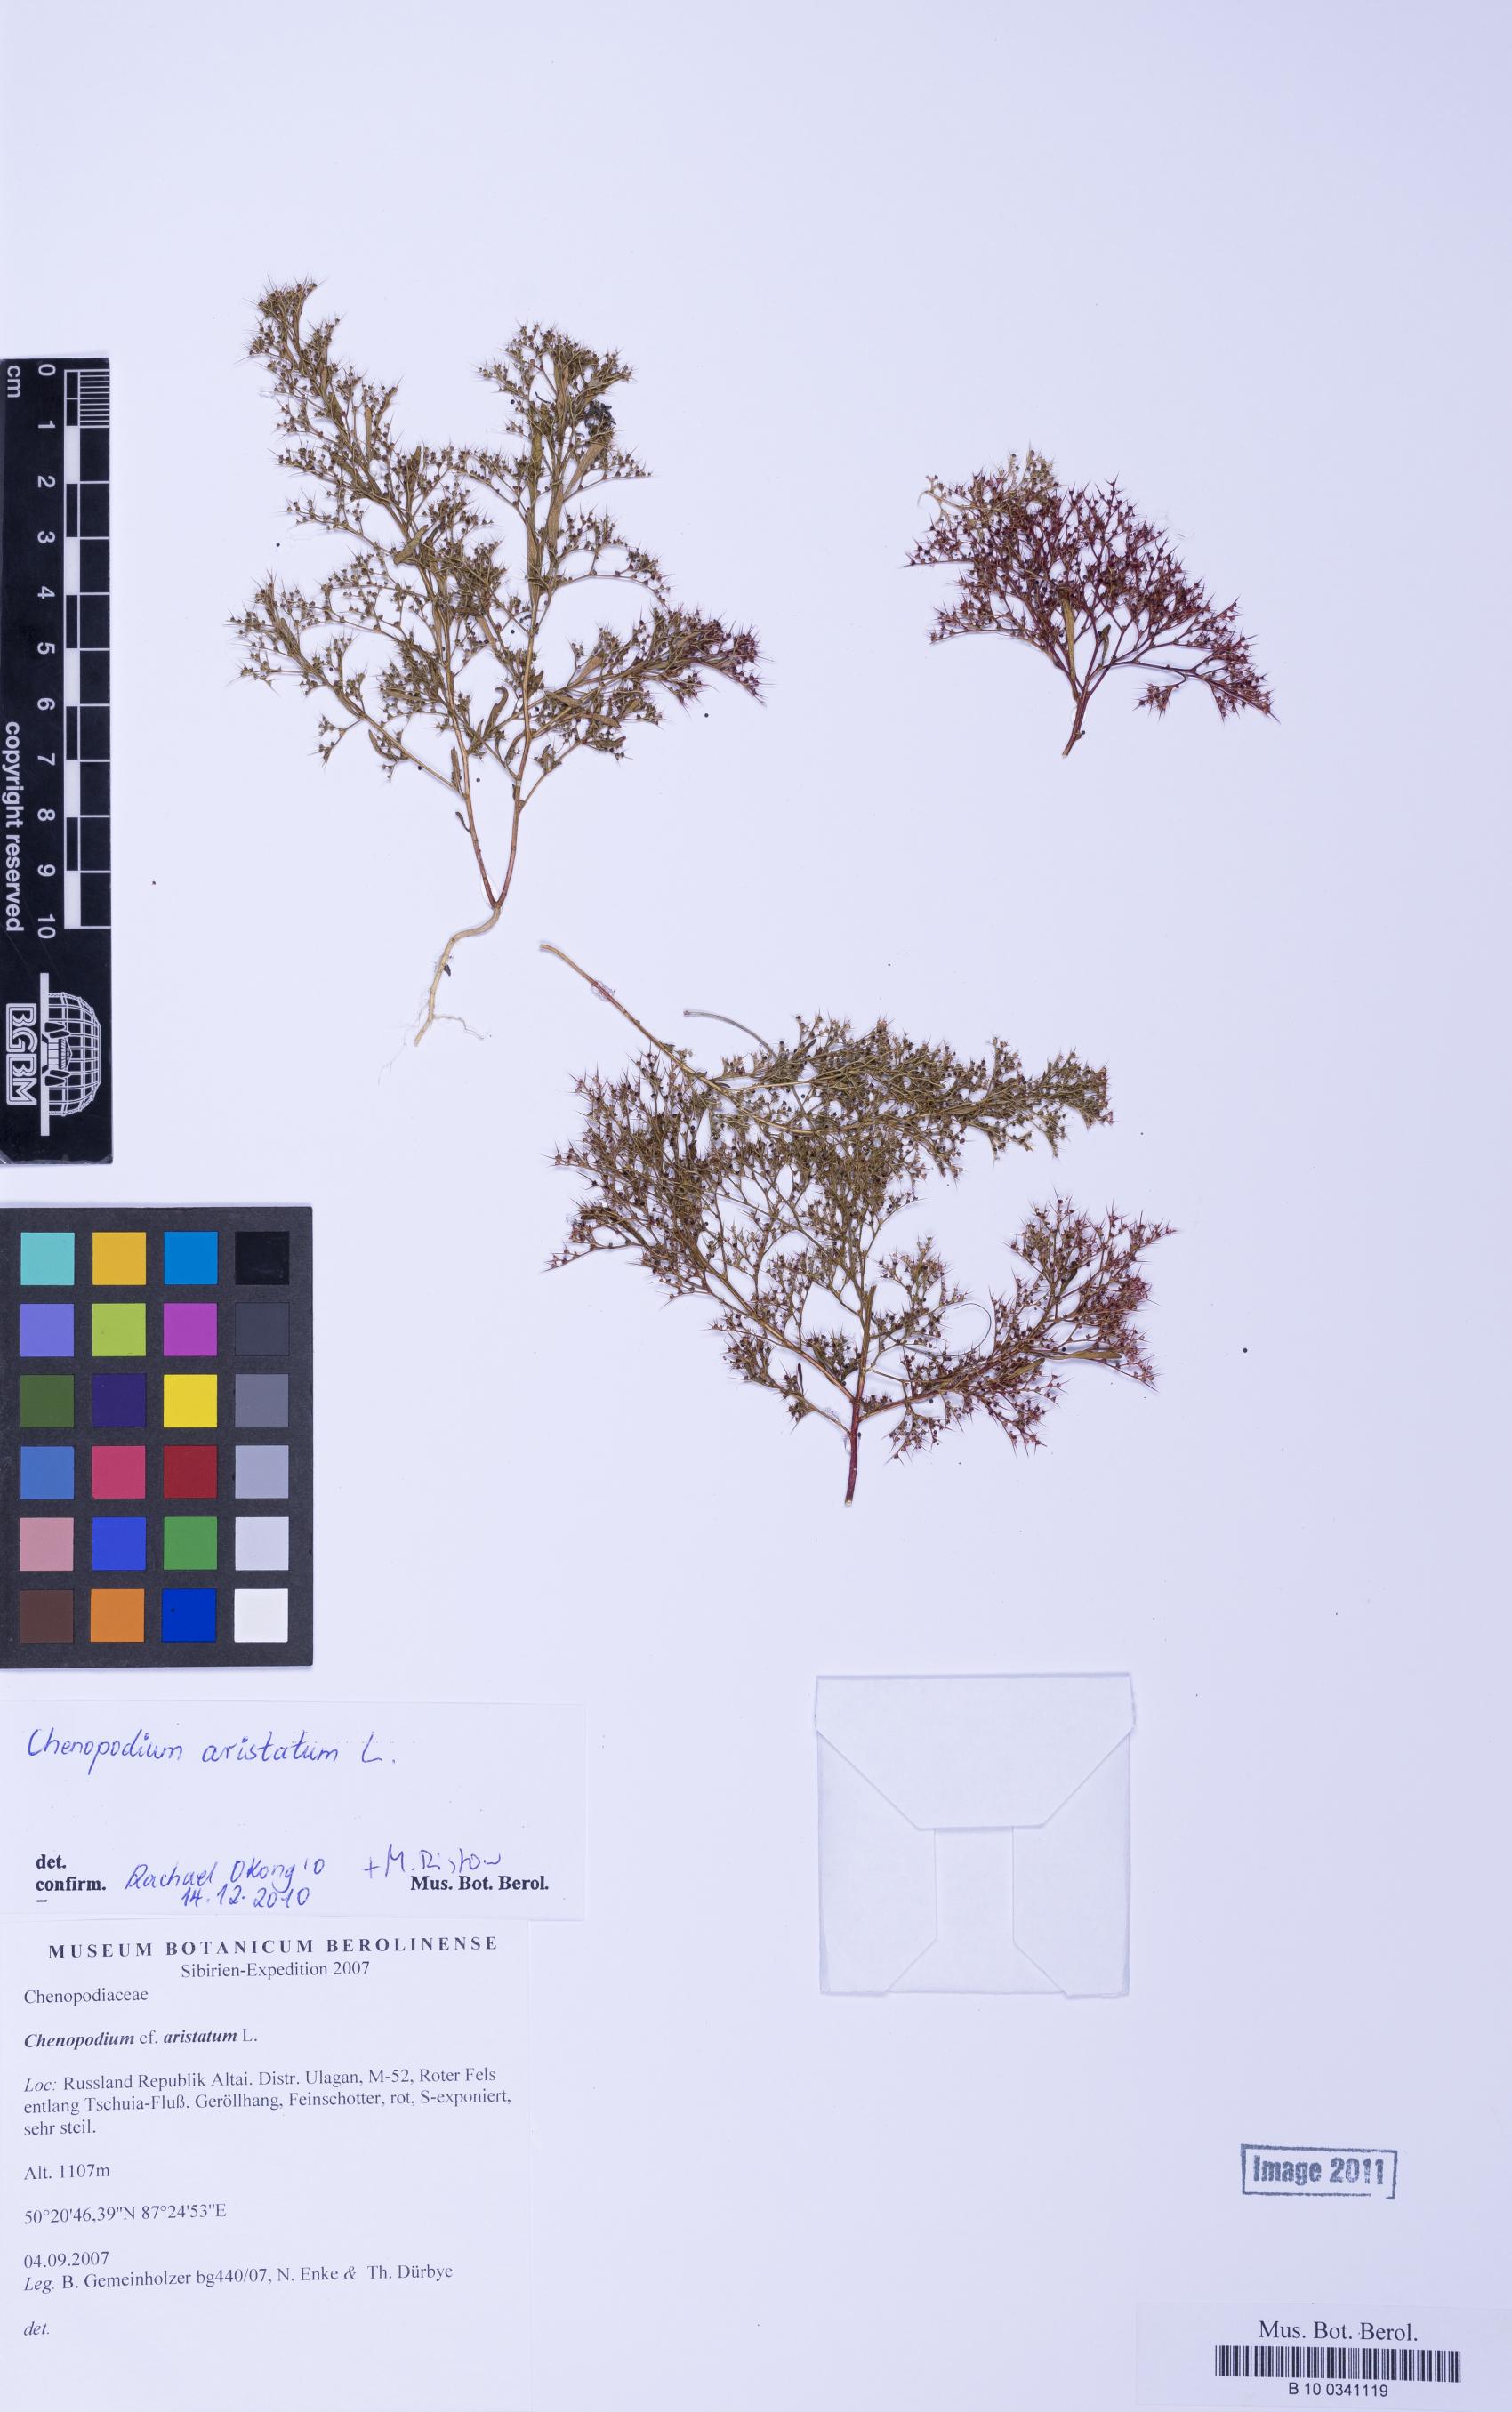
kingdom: Plantae
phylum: Tracheophyta
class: Magnoliopsida
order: Caryophyllales
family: Amaranthaceae
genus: Teloxys
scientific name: Teloxys aristata
